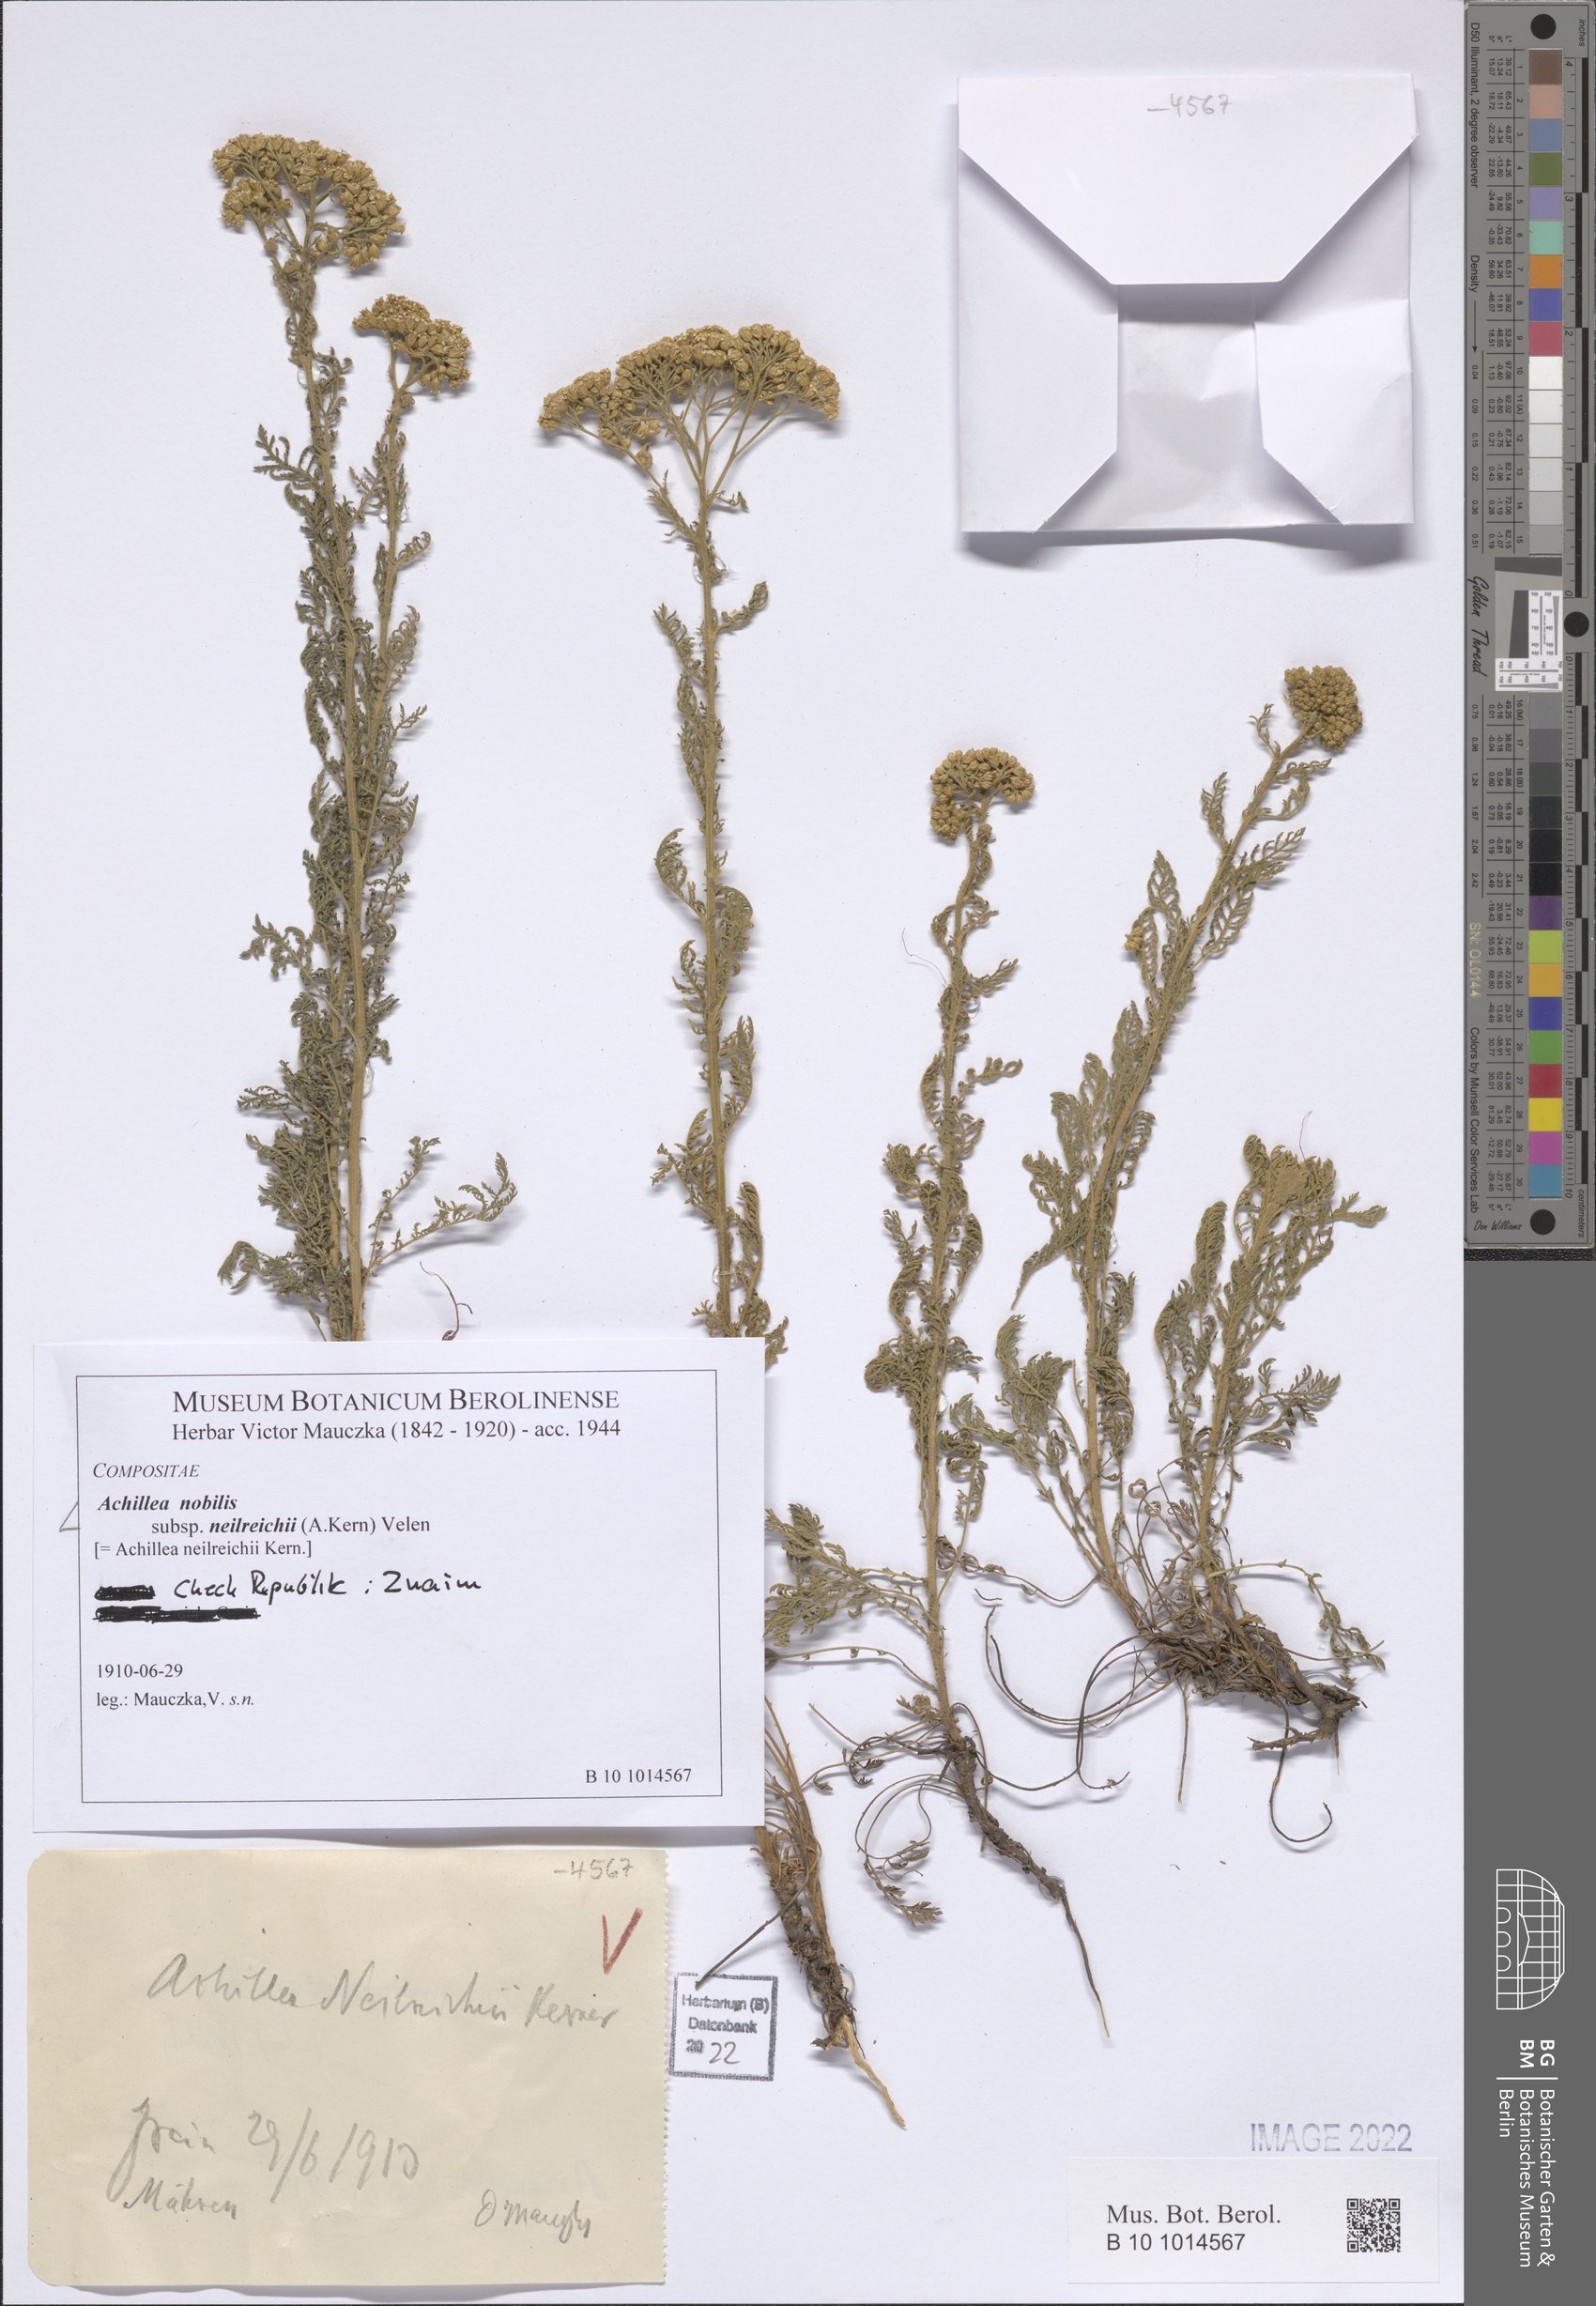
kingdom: Plantae
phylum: Tracheophyta
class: Magnoliopsida
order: Asterales
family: Asteraceae
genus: Achillea
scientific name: Achillea nobilis
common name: Noble yarrow
